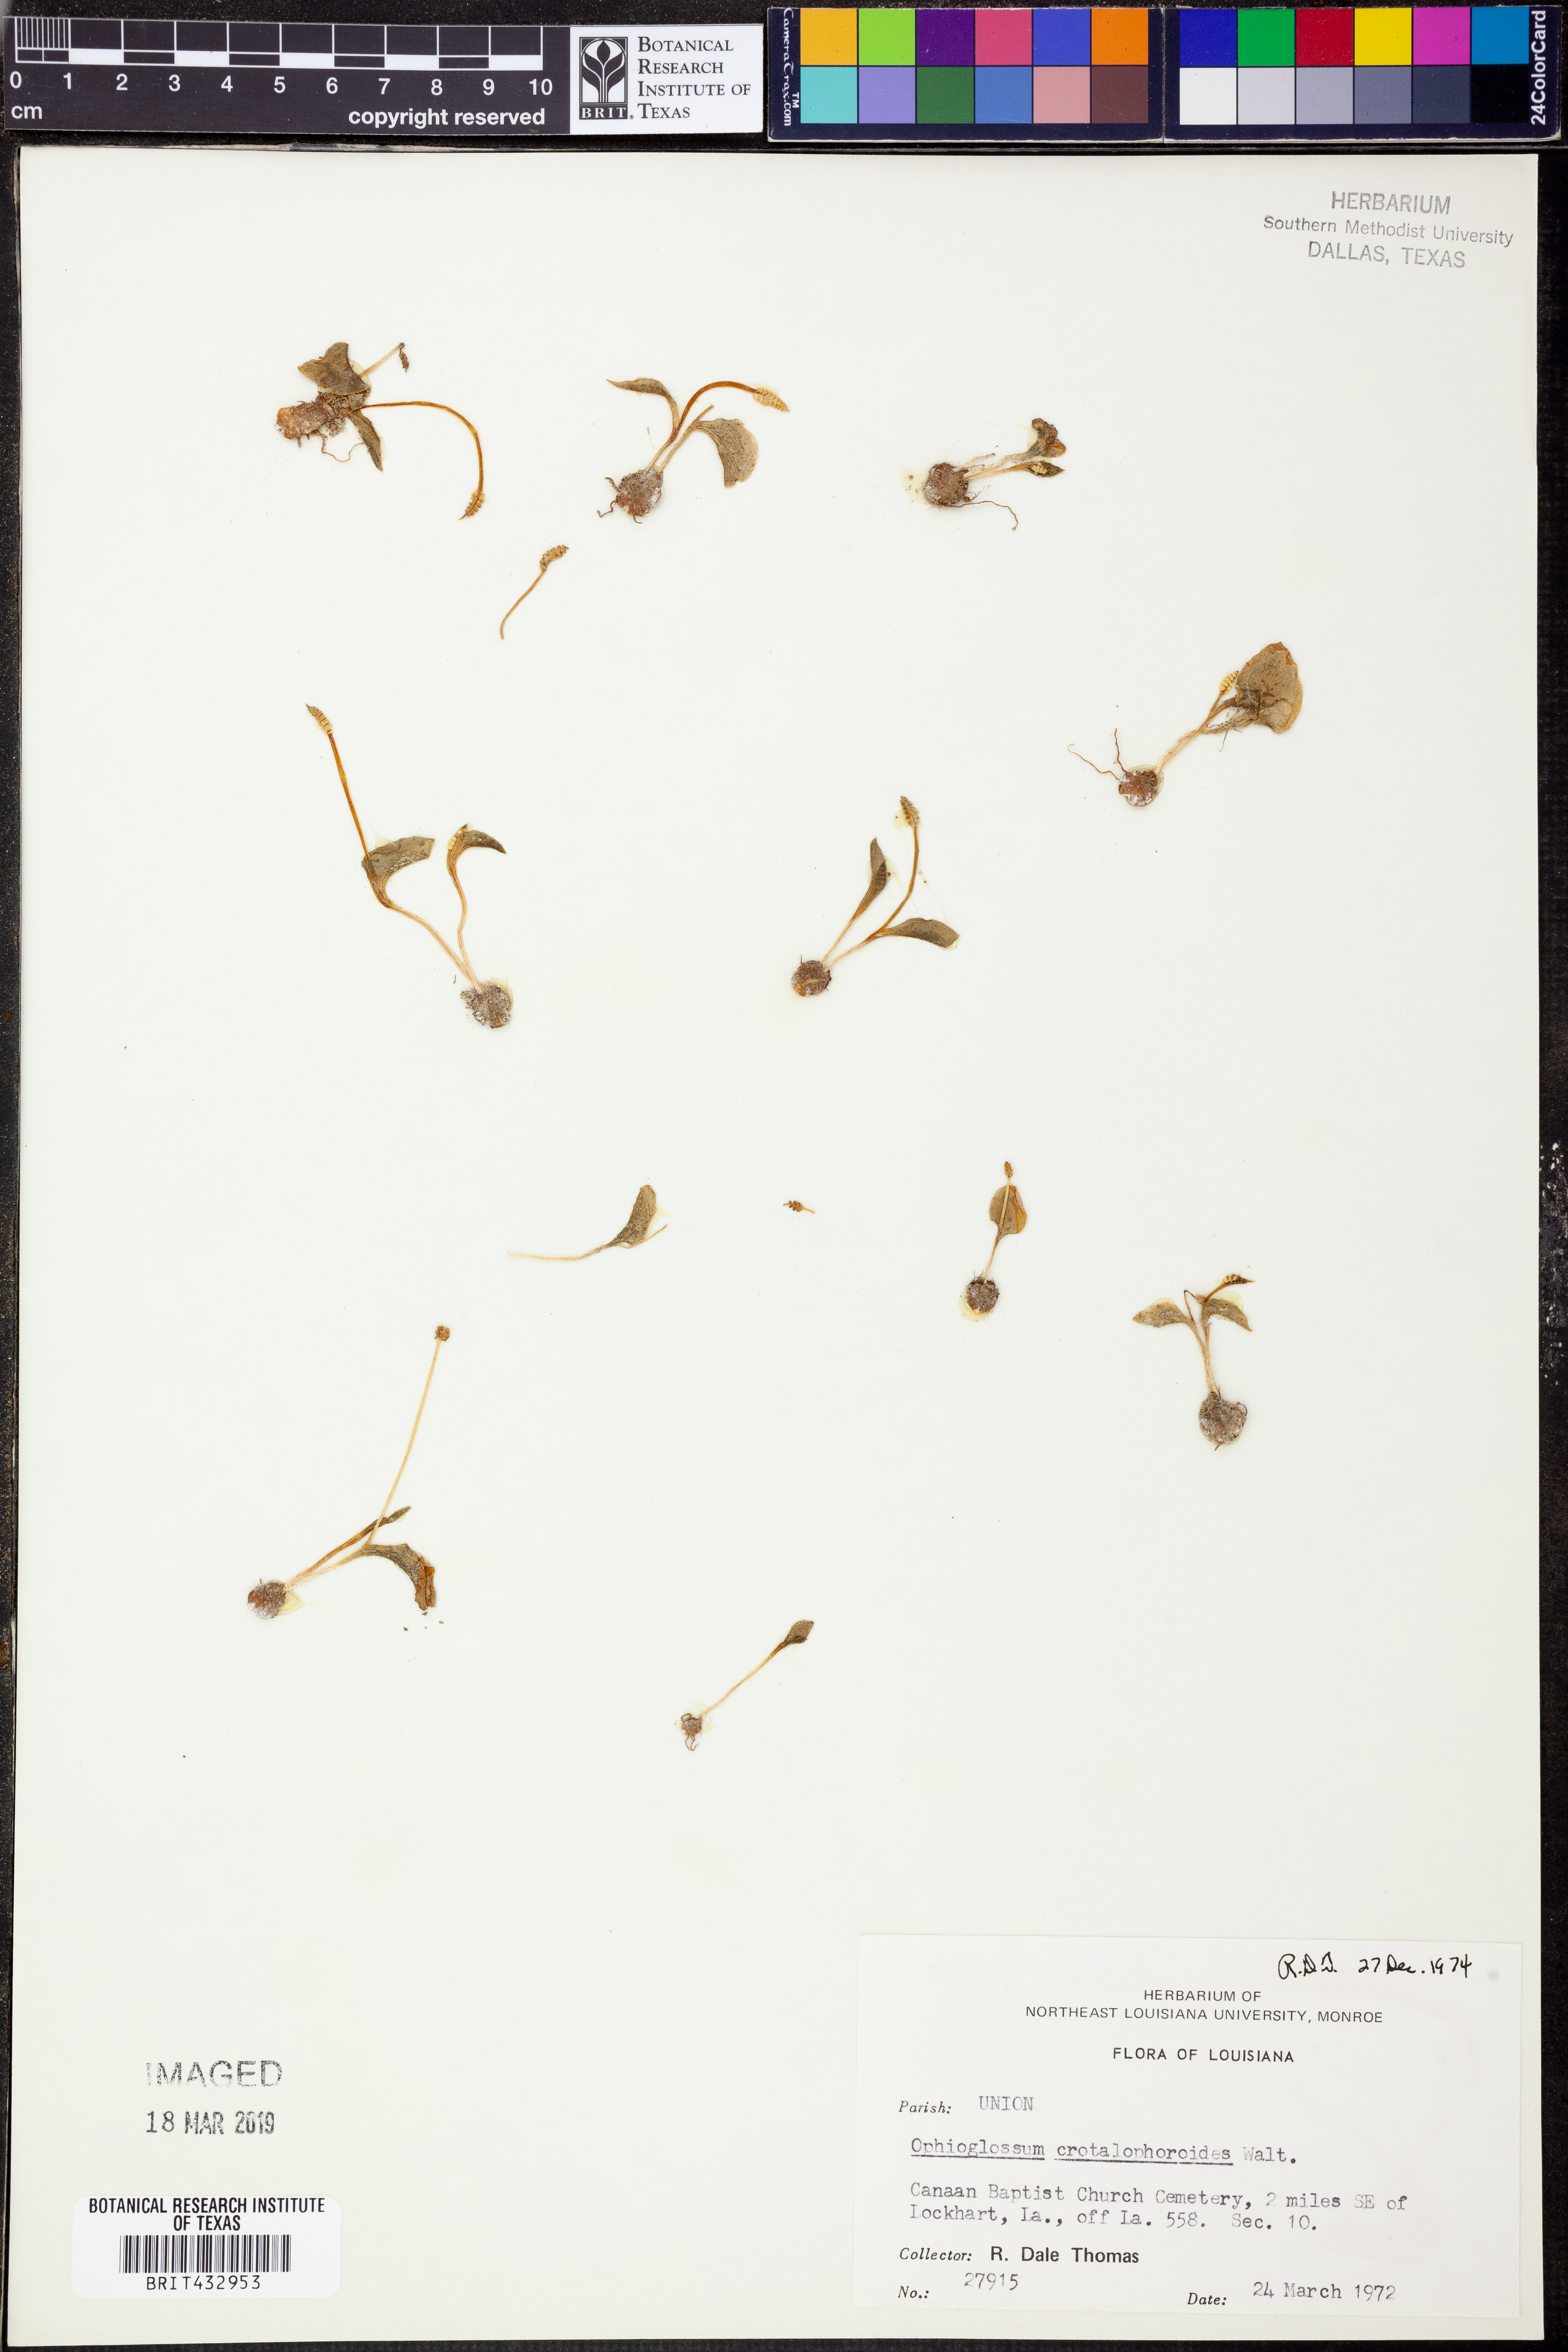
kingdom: Plantae
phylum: Tracheophyta
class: Polypodiopsida
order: Ophioglossales
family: Ophioglossaceae
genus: Ophioglossum
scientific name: Ophioglossum crotalophoroides
